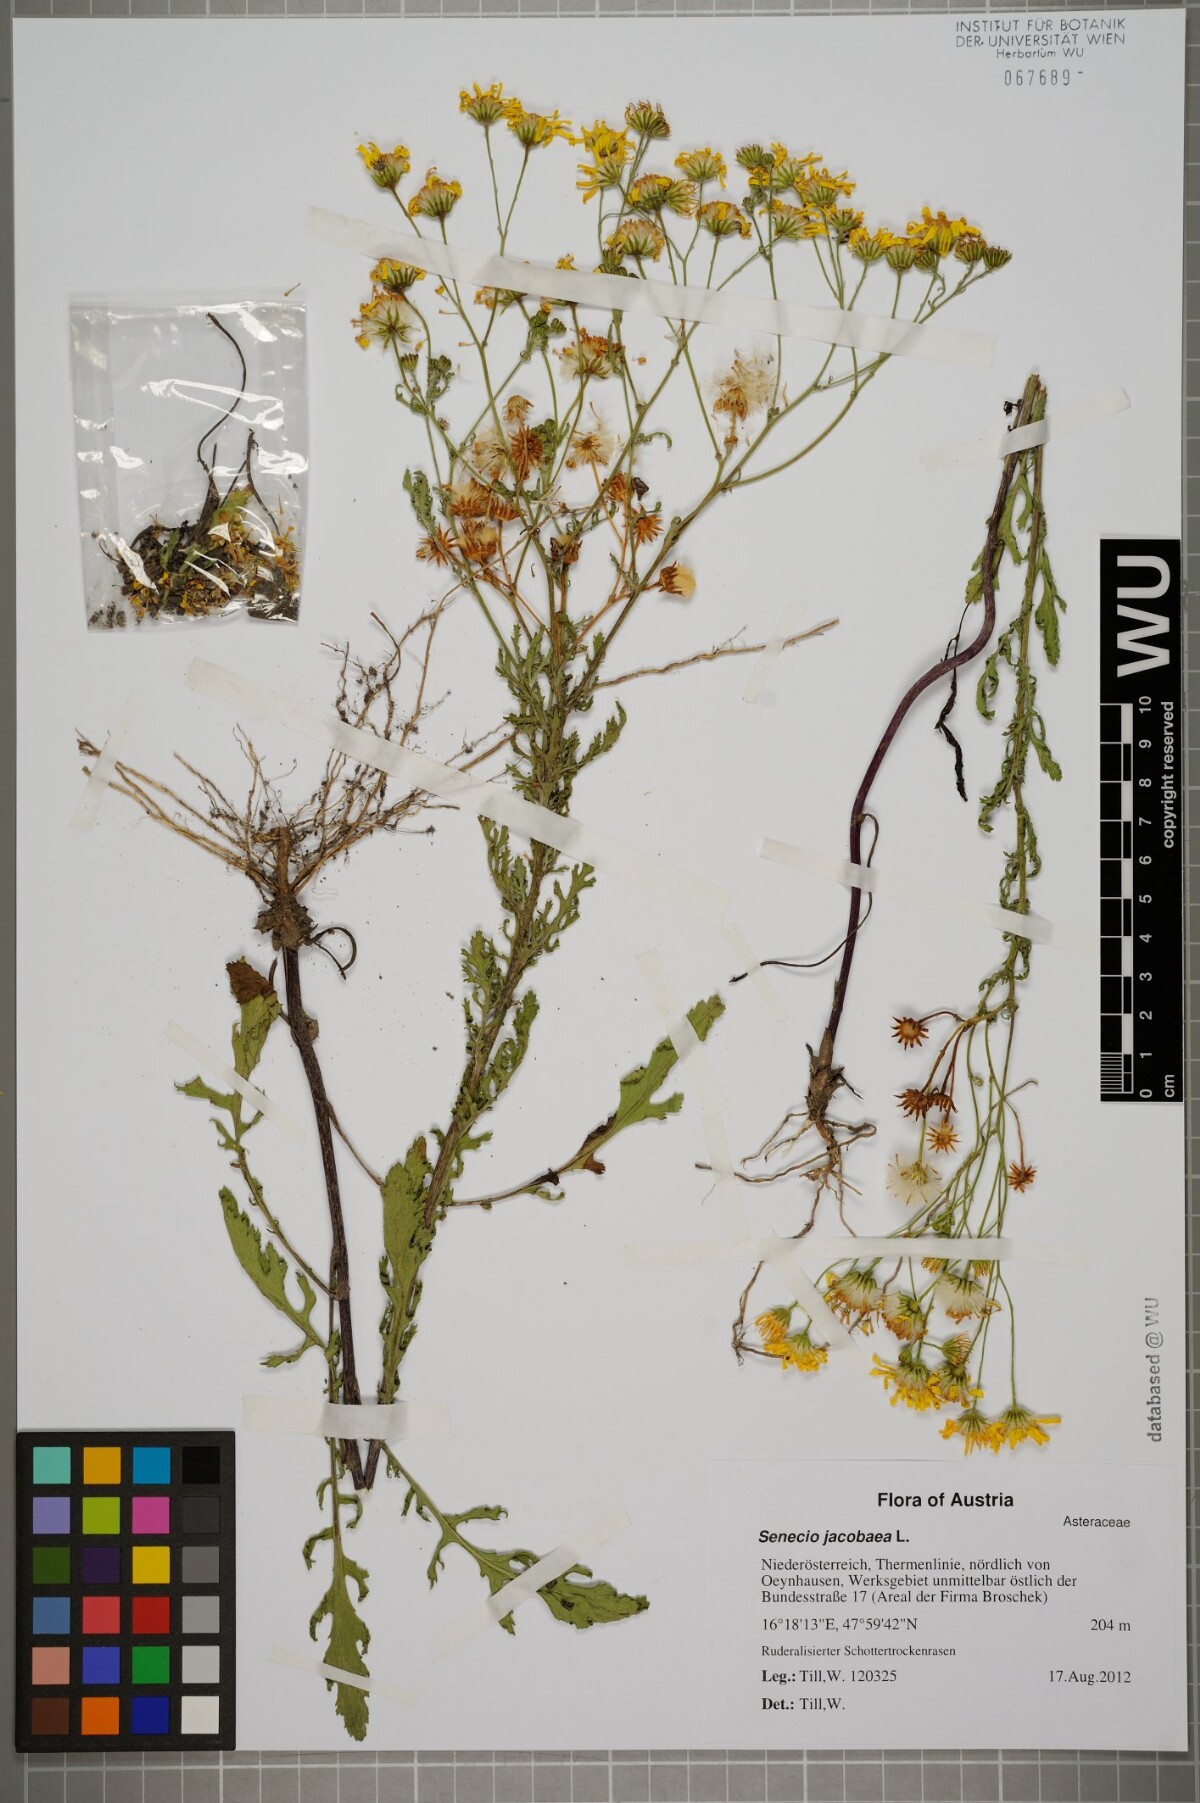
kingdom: Plantae
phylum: Tracheophyta
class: Magnoliopsida
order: Asterales
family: Asteraceae
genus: Jacobaea
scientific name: Jacobaea vulgaris
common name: Stinking willie
